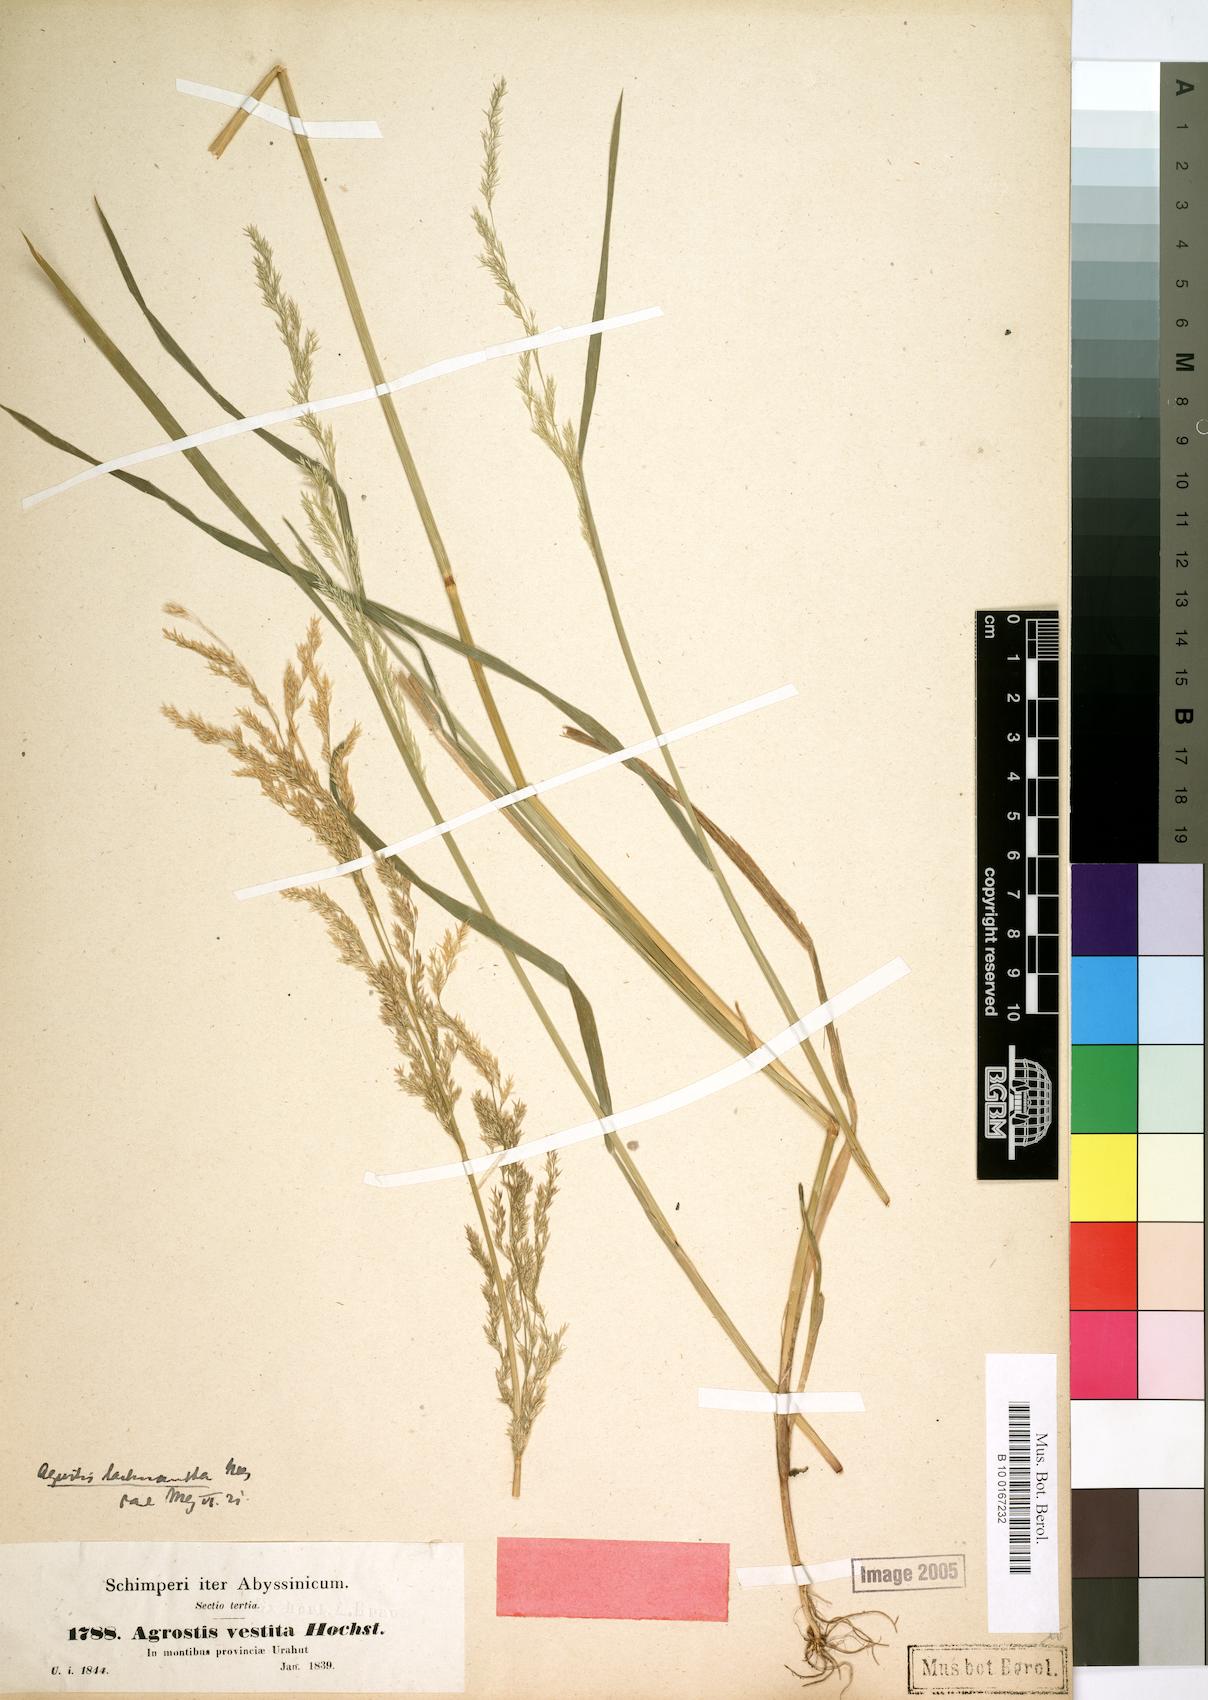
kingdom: Plantae
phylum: Tracheophyta
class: Liliopsida
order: Poales
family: Poaceae
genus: Lachnagrostis
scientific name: Lachnagrostis lachnantha
